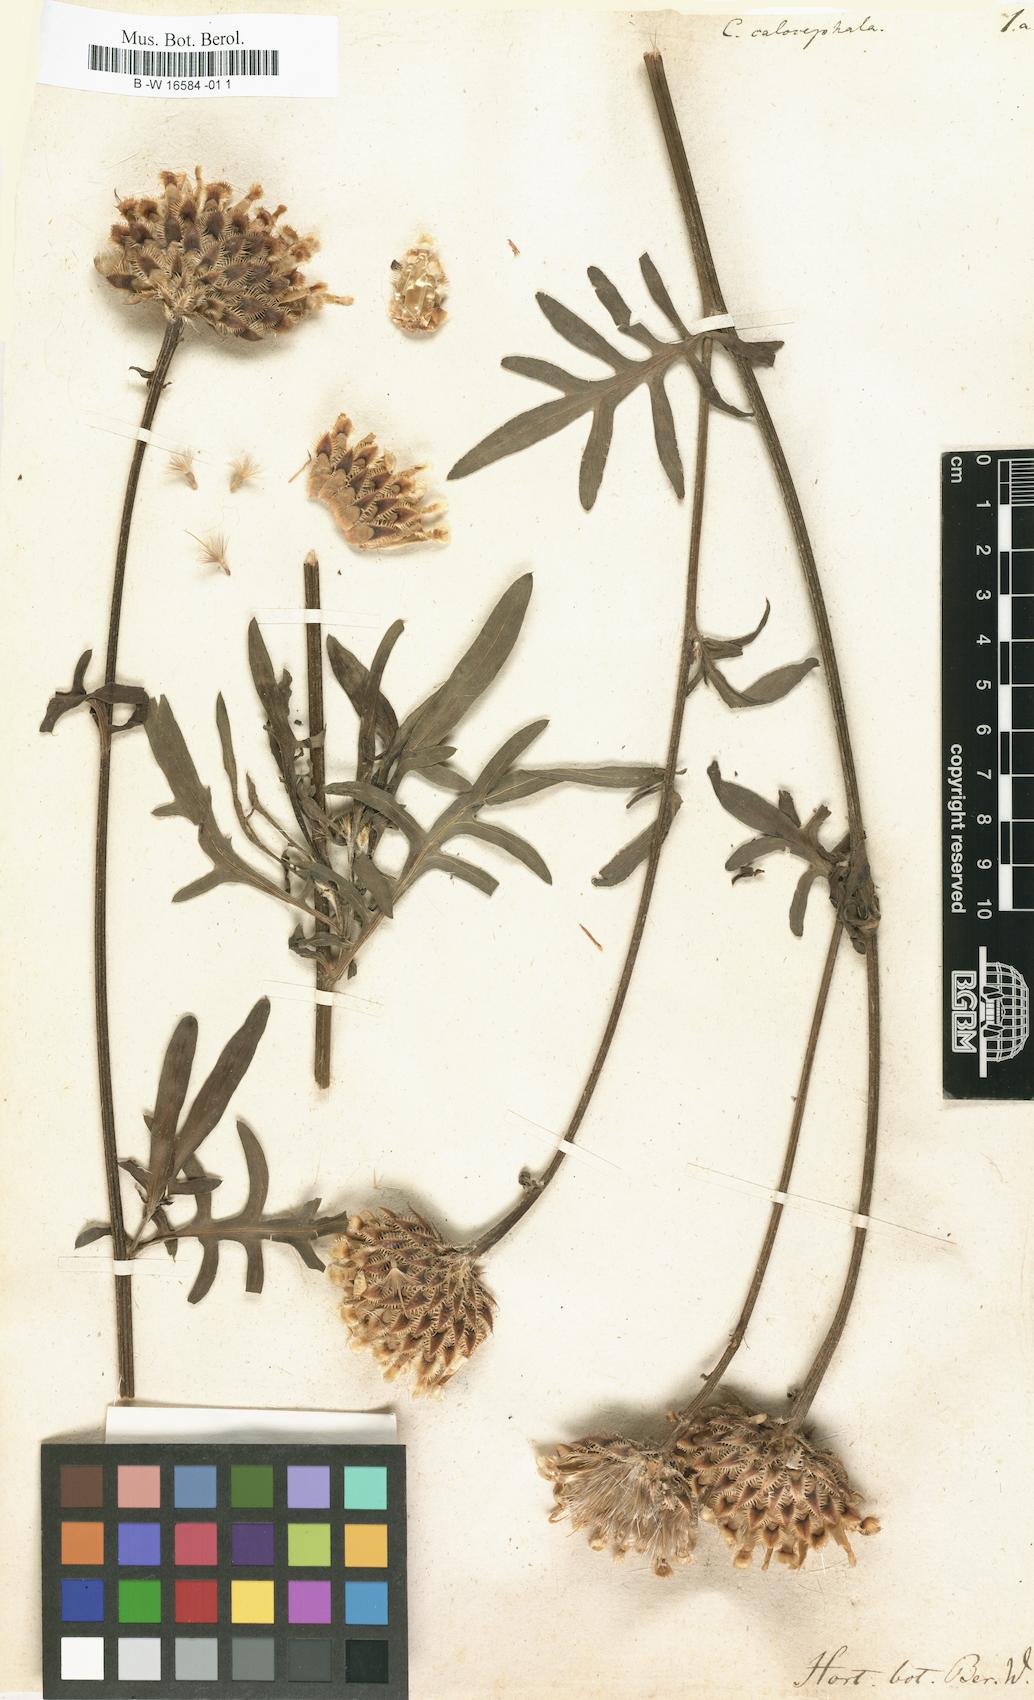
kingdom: Plantae
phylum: Tracheophyta
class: Magnoliopsida
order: Asterales
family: Asteraceae
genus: Centaurea
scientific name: Centaurea calocephala
